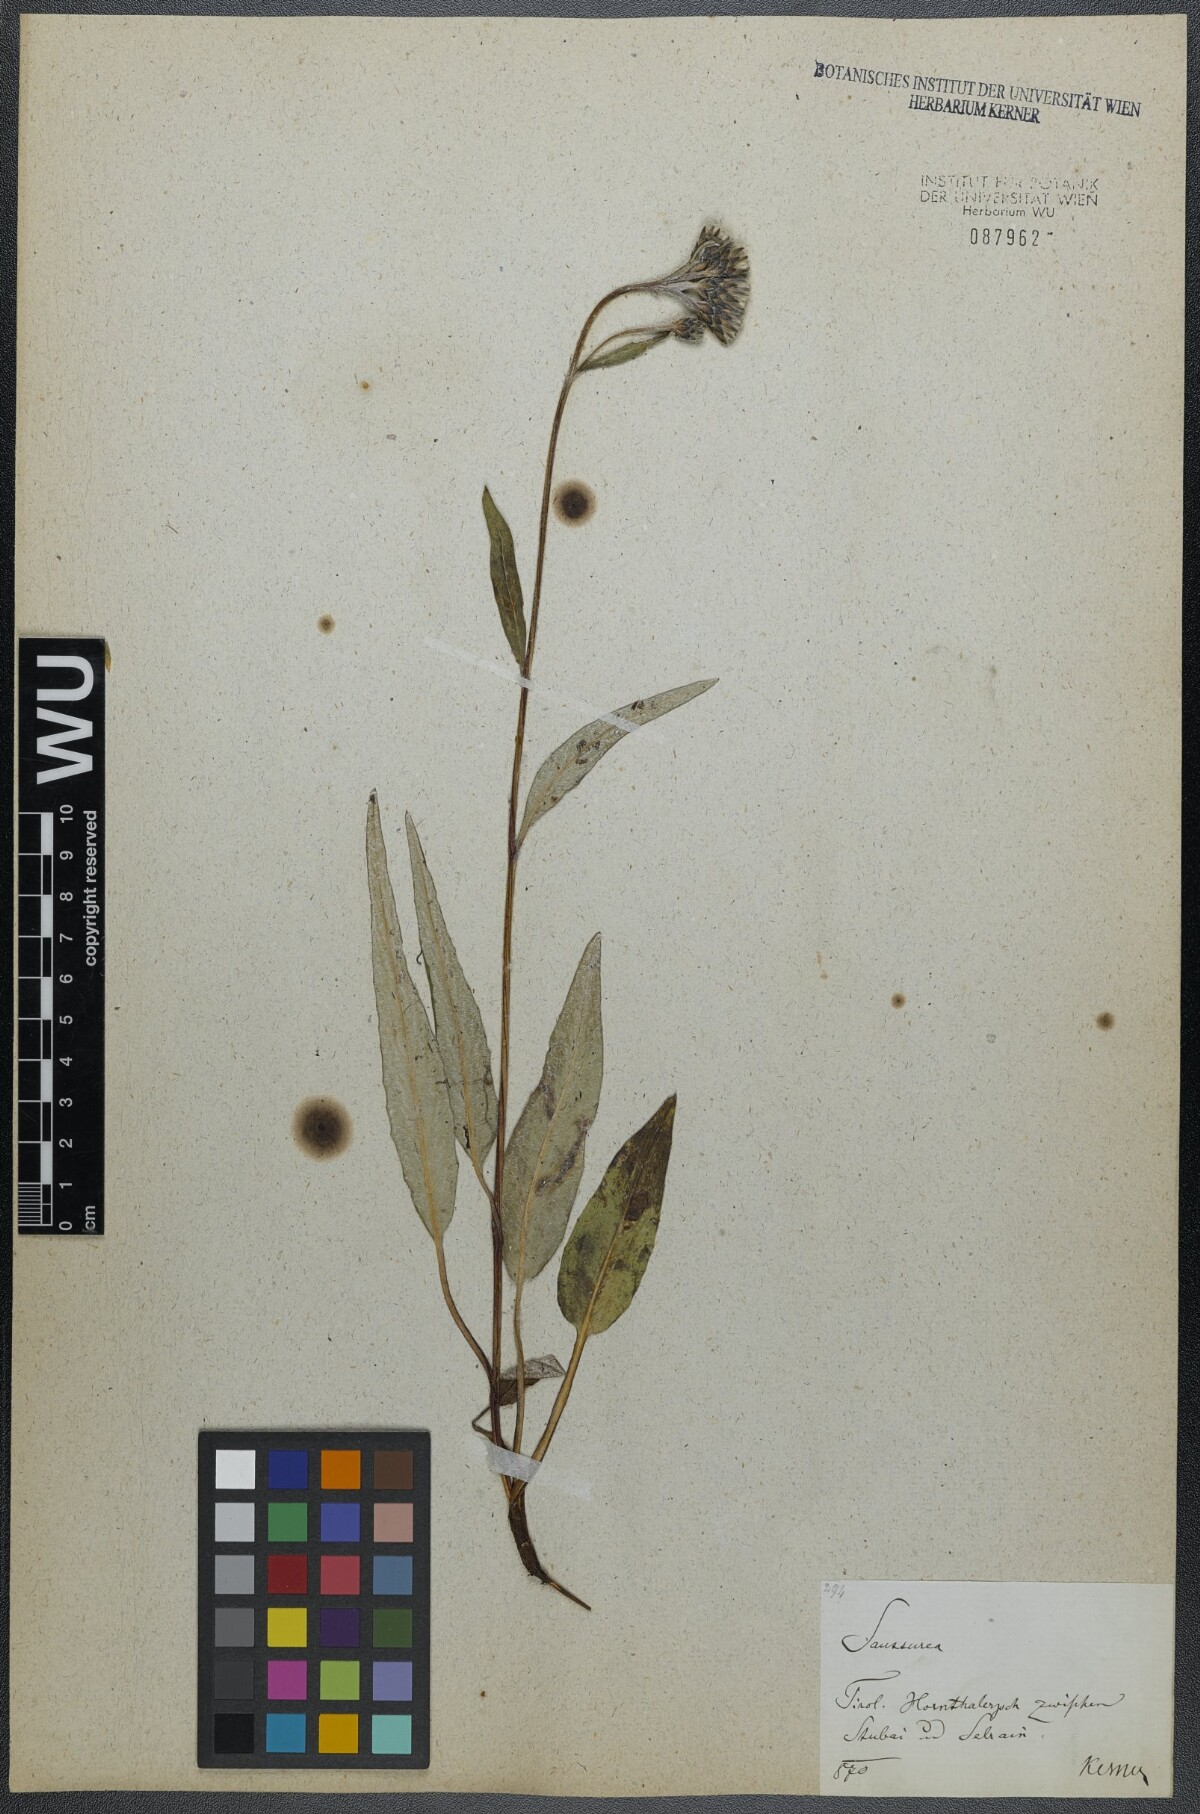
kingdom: Plantae
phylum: Tracheophyta
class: Magnoliopsida
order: Asterales
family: Asteraceae
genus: Saussurea
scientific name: Saussurea alpina
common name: Alpine saw-wort
